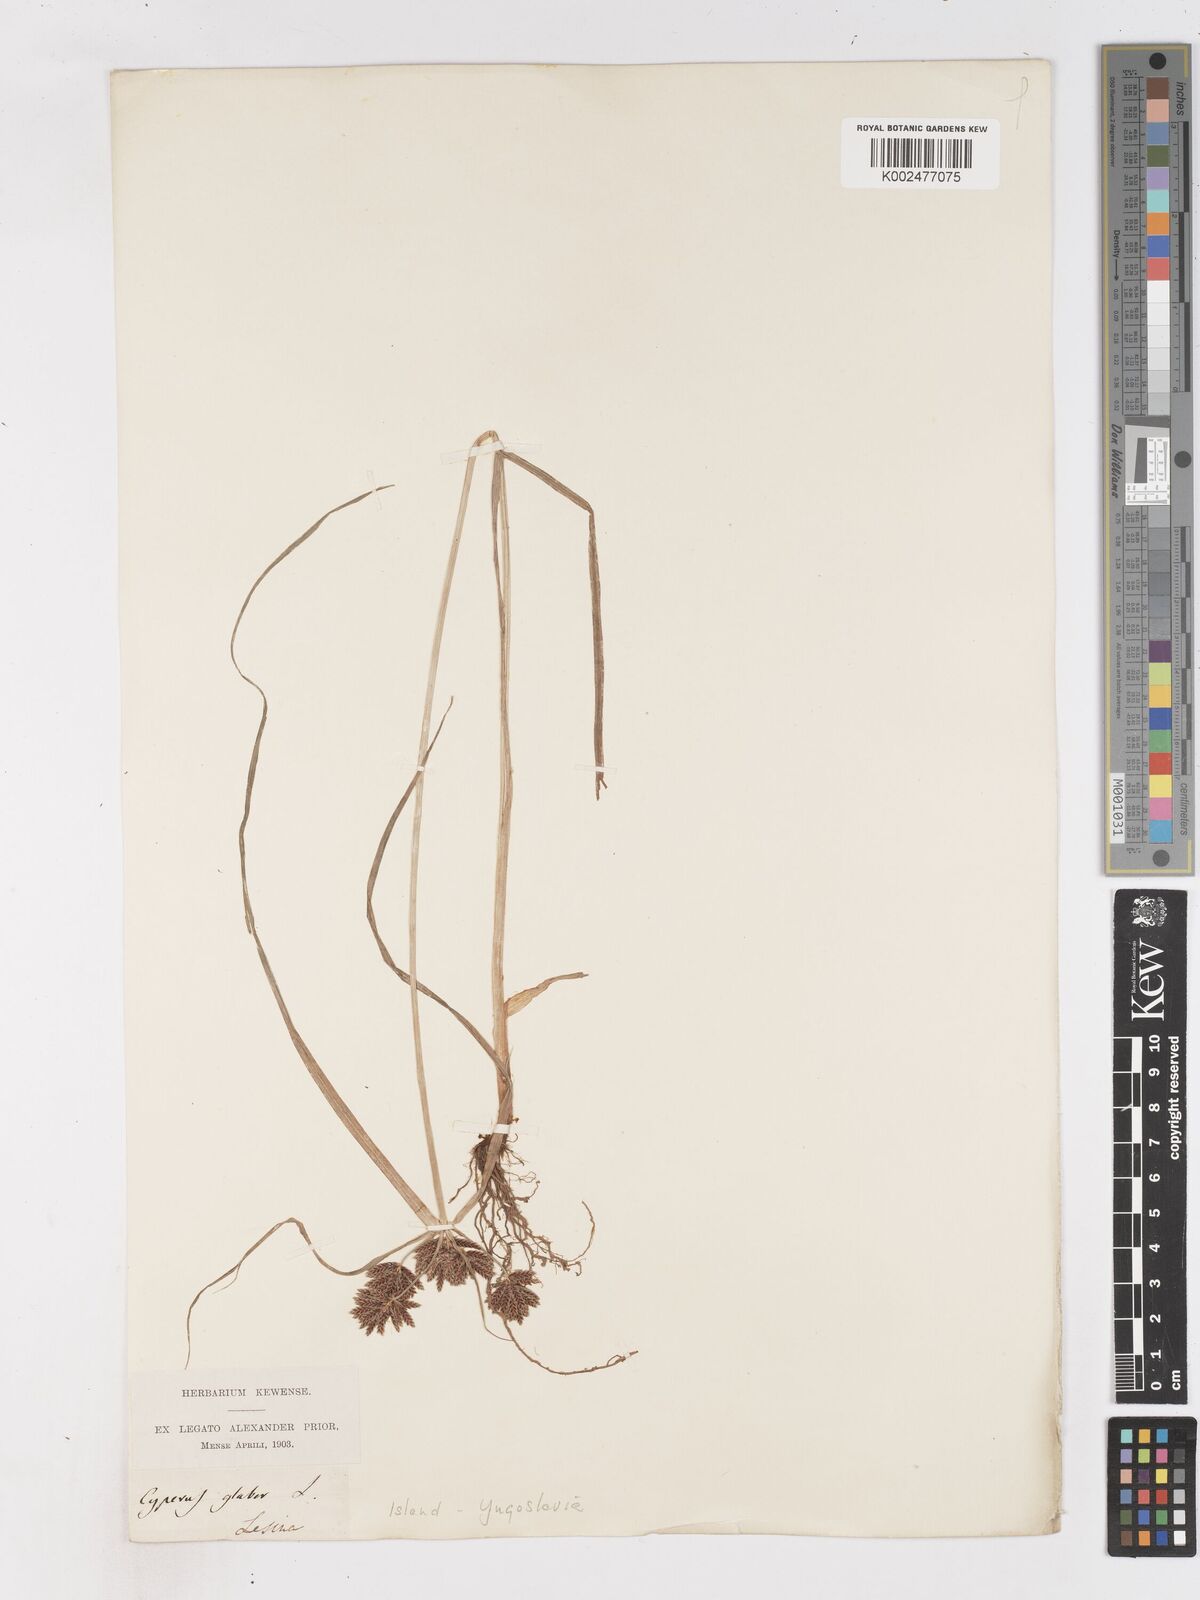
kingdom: Plantae
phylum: Tracheophyta
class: Liliopsida
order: Poales
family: Cyperaceae
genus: Cyperus
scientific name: Cyperus serotinus
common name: Tidalmarsh flatsedge
